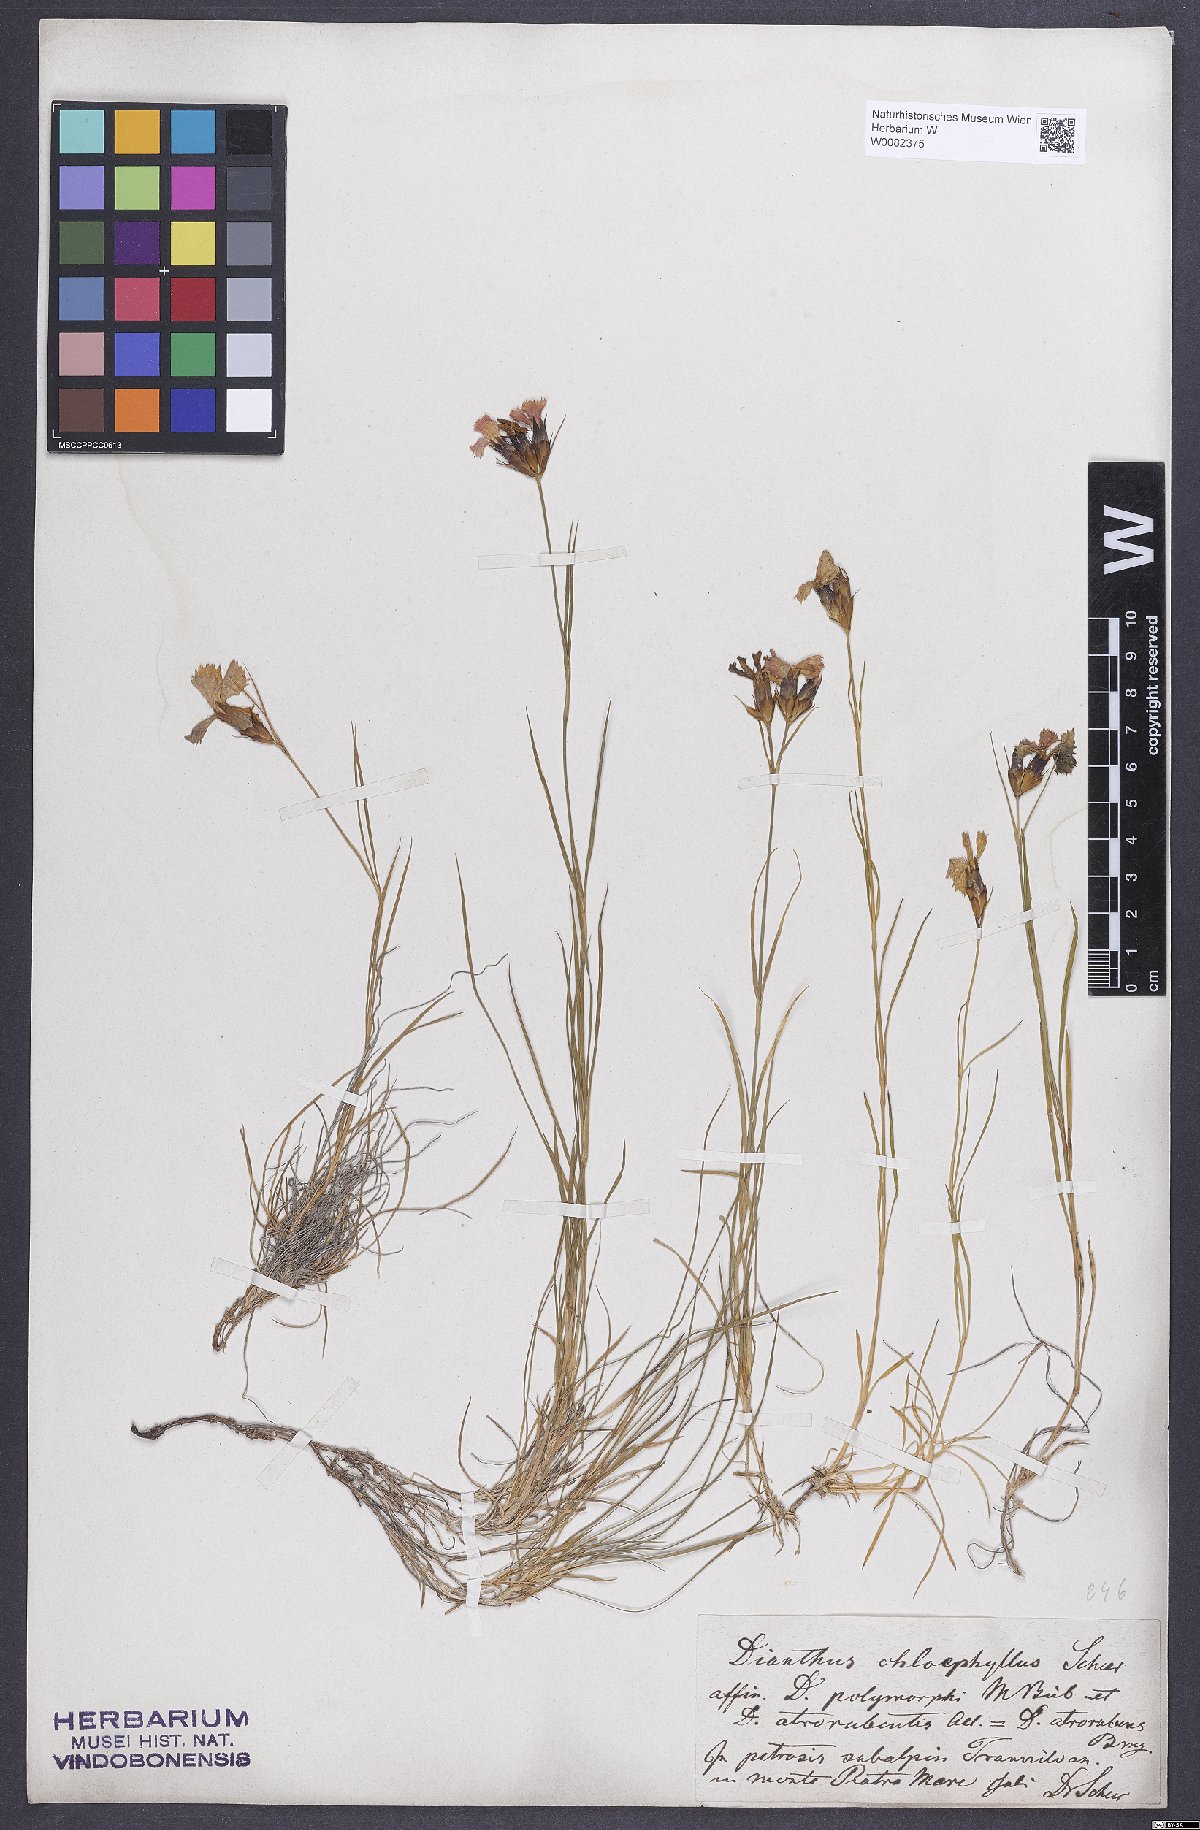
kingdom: Plantae
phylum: Tracheophyta
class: Magnoliopsida
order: Caryophyllales
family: Caryophyllaceae
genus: Dianthus
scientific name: Dianthus carthusianorum
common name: Carthusian pink
